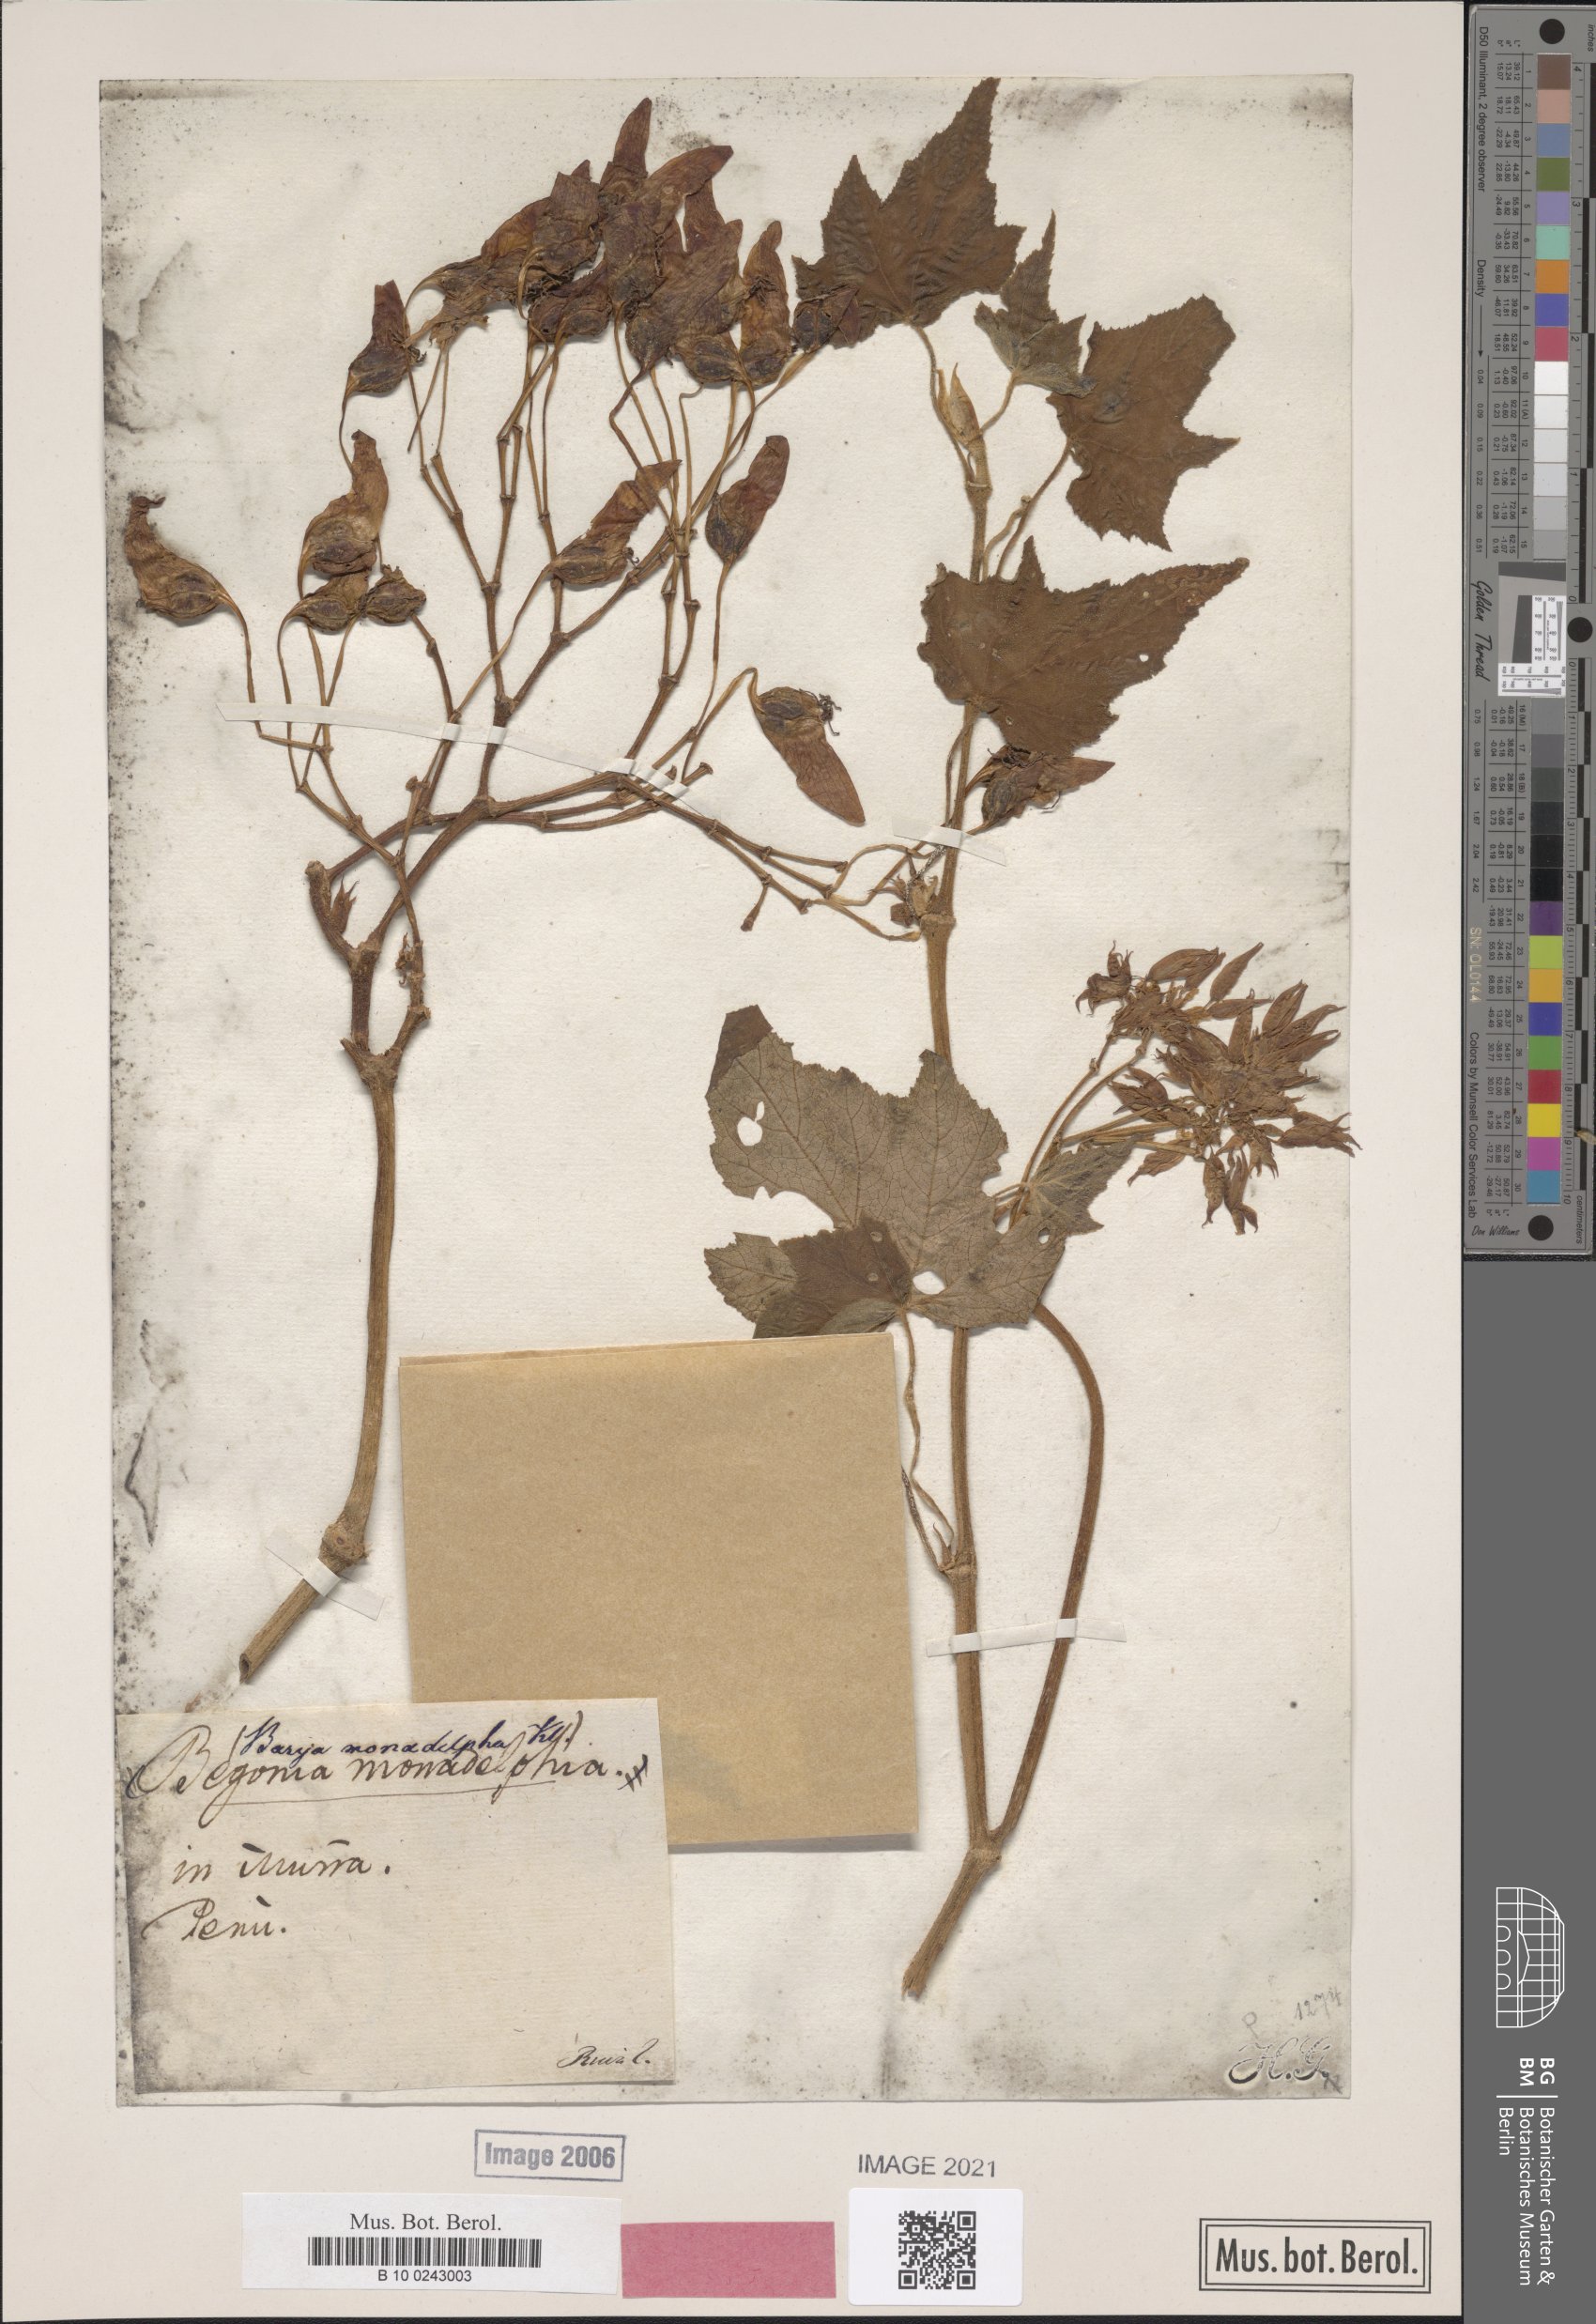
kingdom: Plantae
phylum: Tracheophyta
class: Magnoliopsida
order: Cucurbitales
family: Begoniaceae
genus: Begonia
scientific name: Begonia monadelpha
